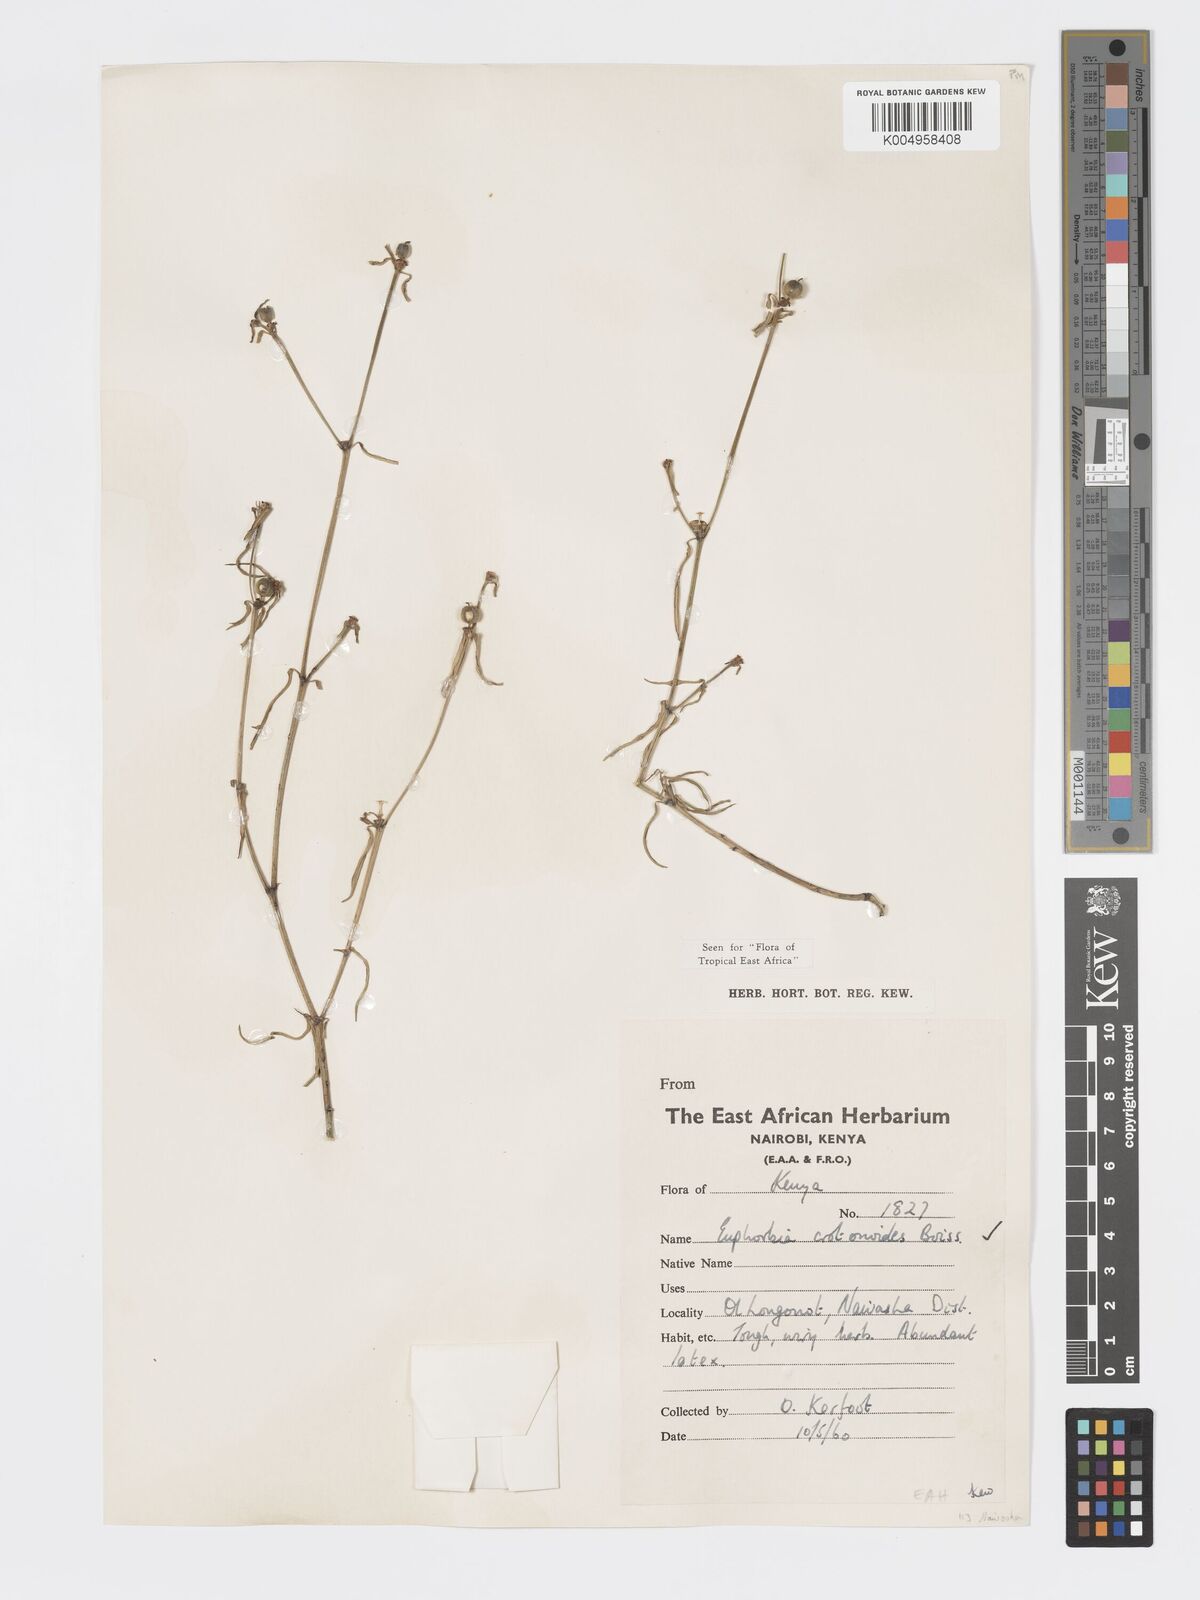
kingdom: Plantae
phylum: Tracheophyta
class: Magnoliopsida
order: Malpighiales
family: Euphorbiaceae
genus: Euphorbia
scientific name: Euphorbia crotonoides
